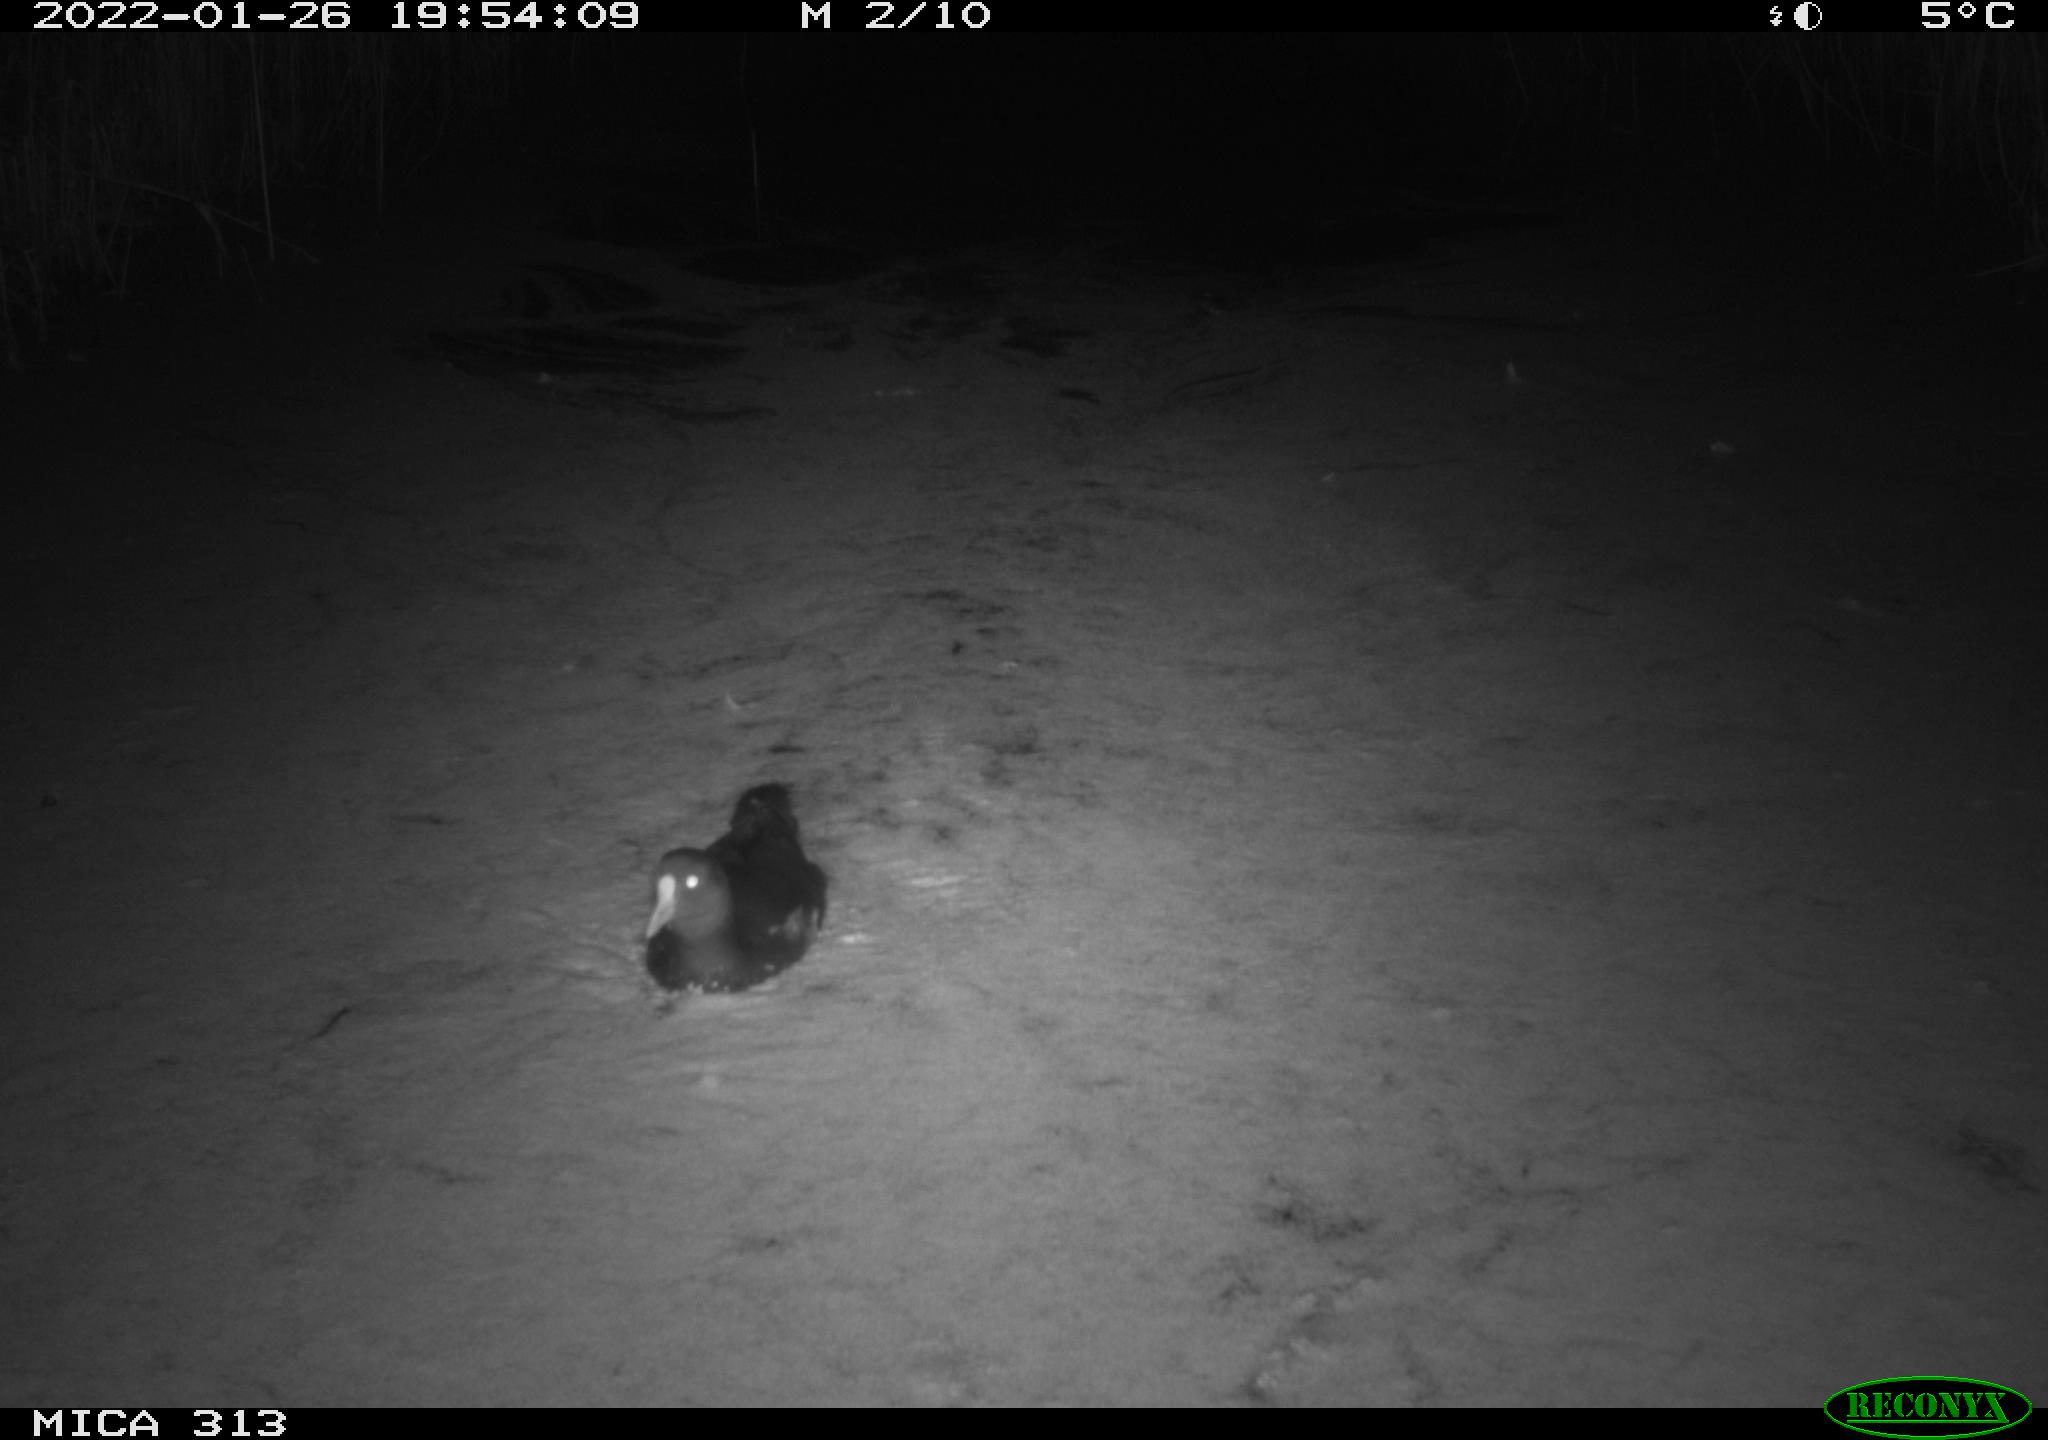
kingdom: Animalia
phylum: Chordata
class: Aves
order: Gruiformes
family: Rallidae
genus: Fulica
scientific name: Fulica atra
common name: Eurasian coot
